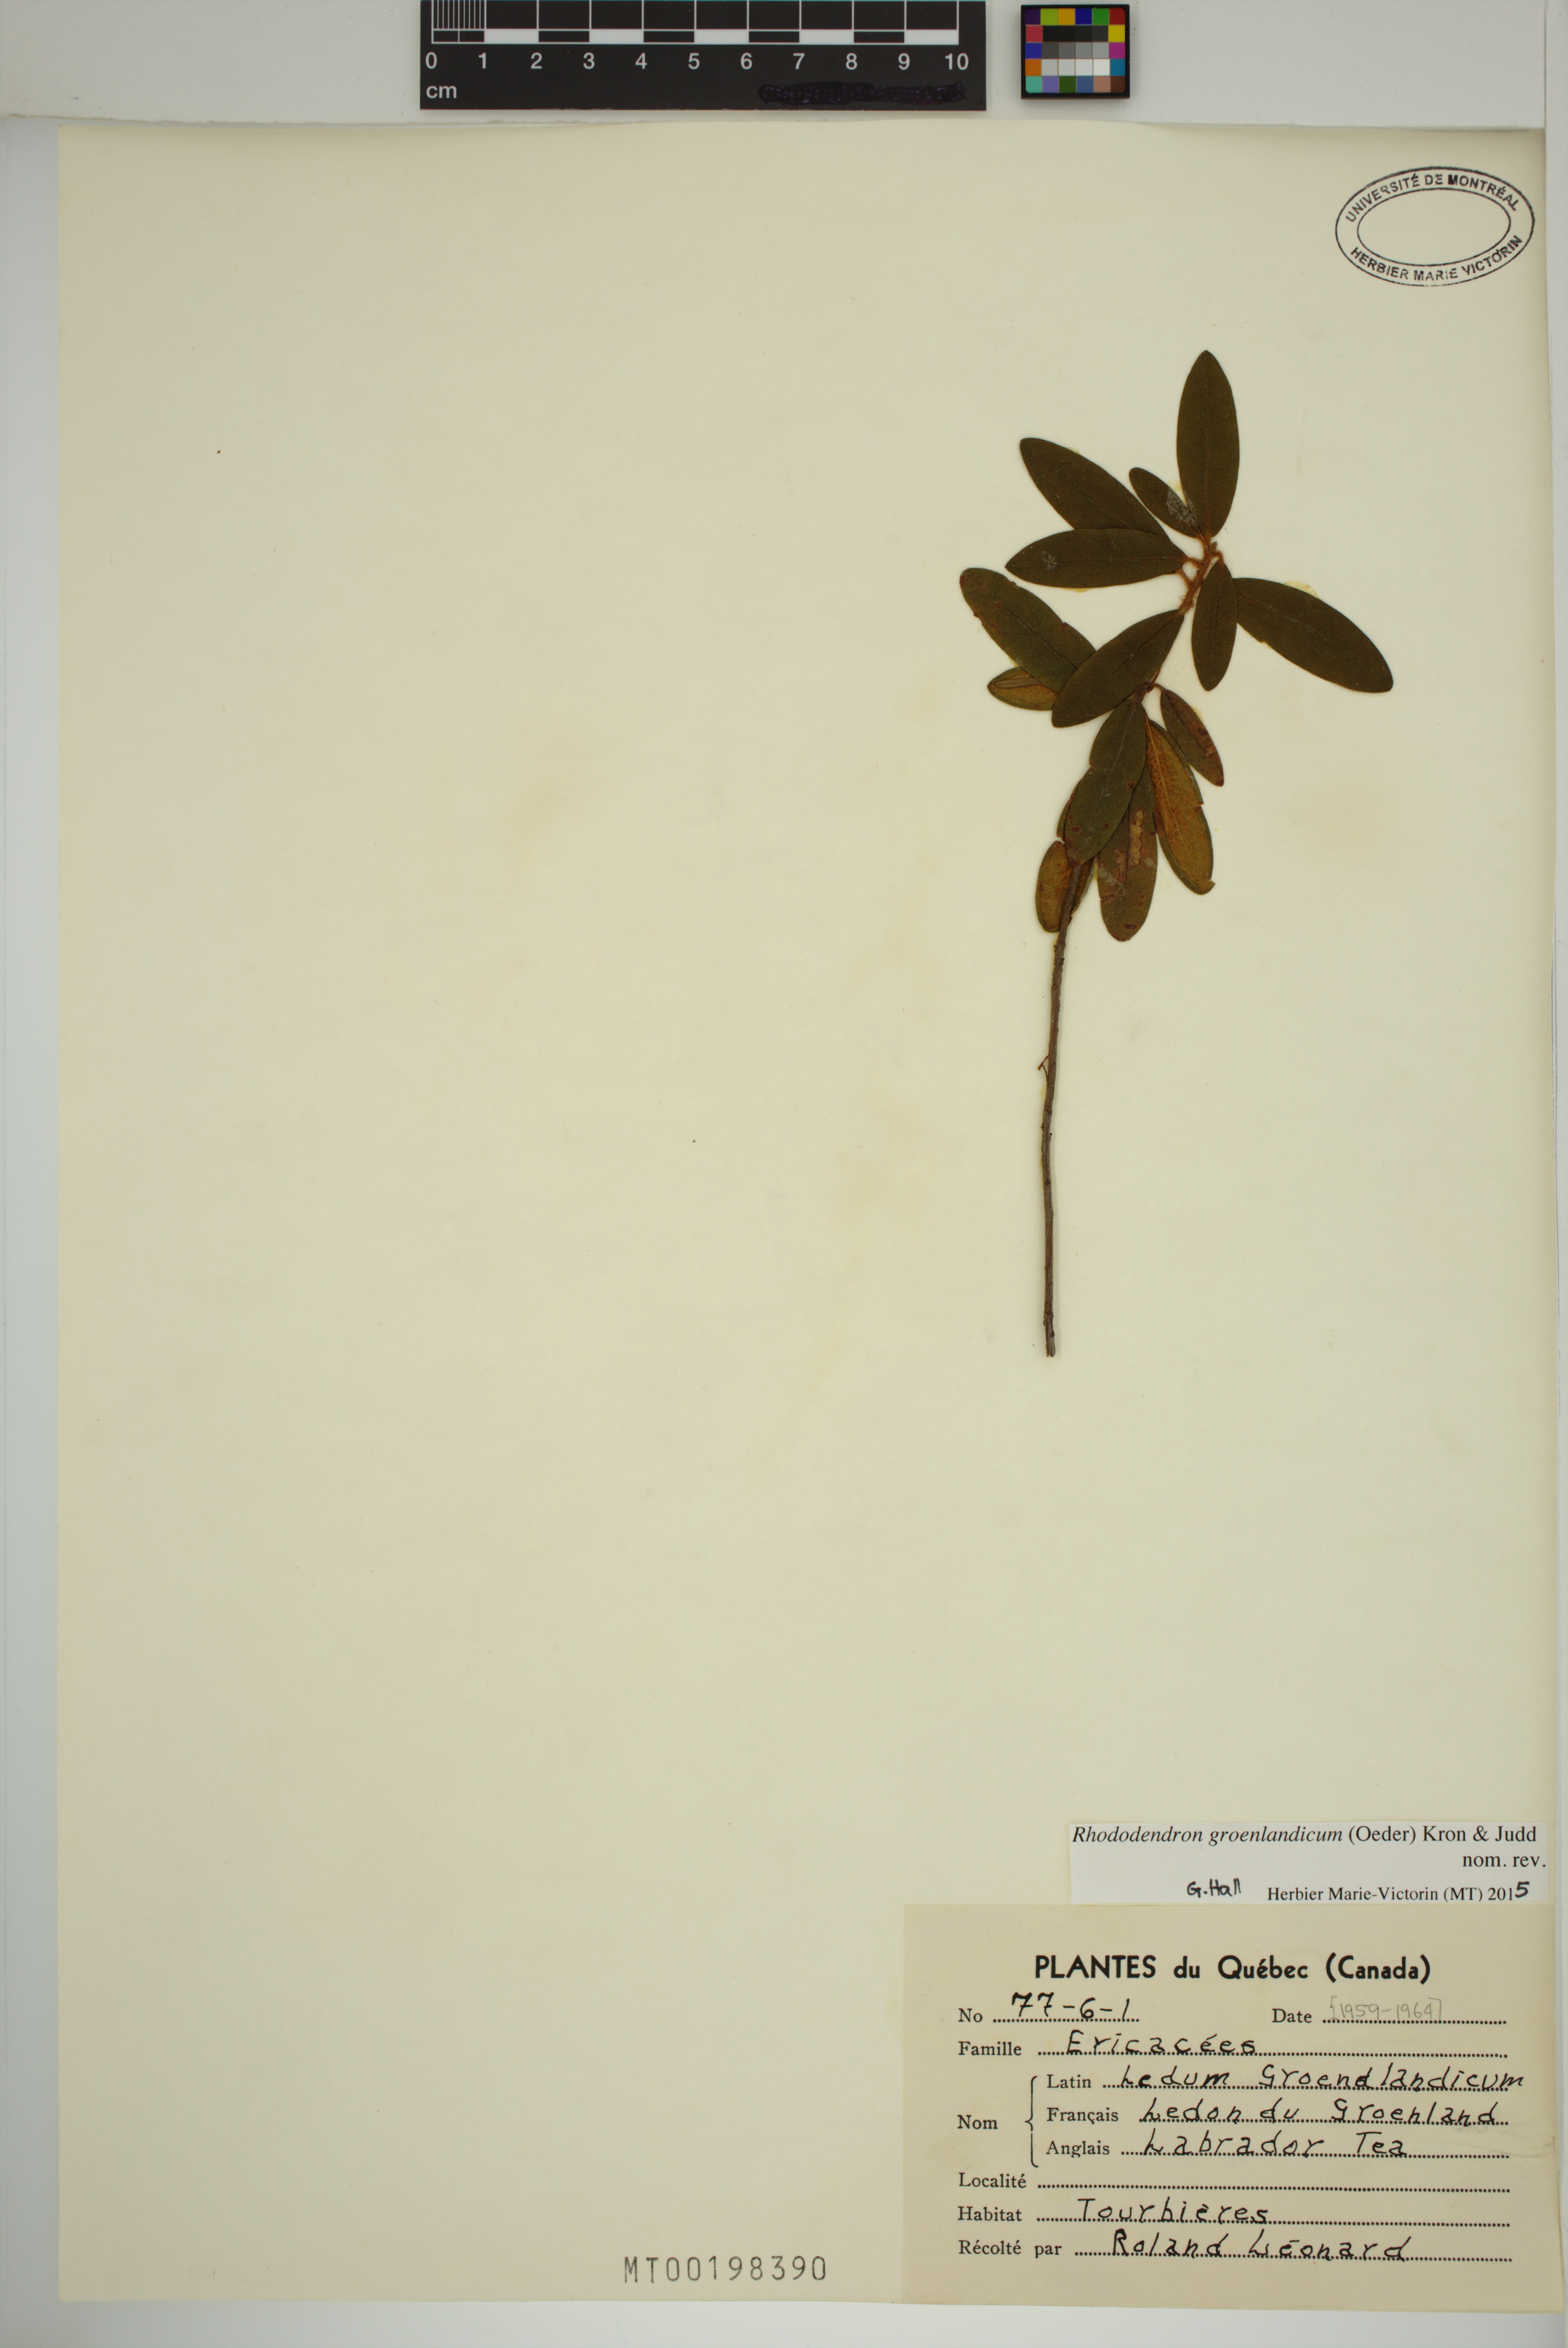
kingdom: Plantae
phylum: Tracheophyta
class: Magnoliopsida
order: Ericales
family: Ericaceae
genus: Rhododendron
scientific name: Rhododendron groenlandicum
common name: Bog labrador tea
